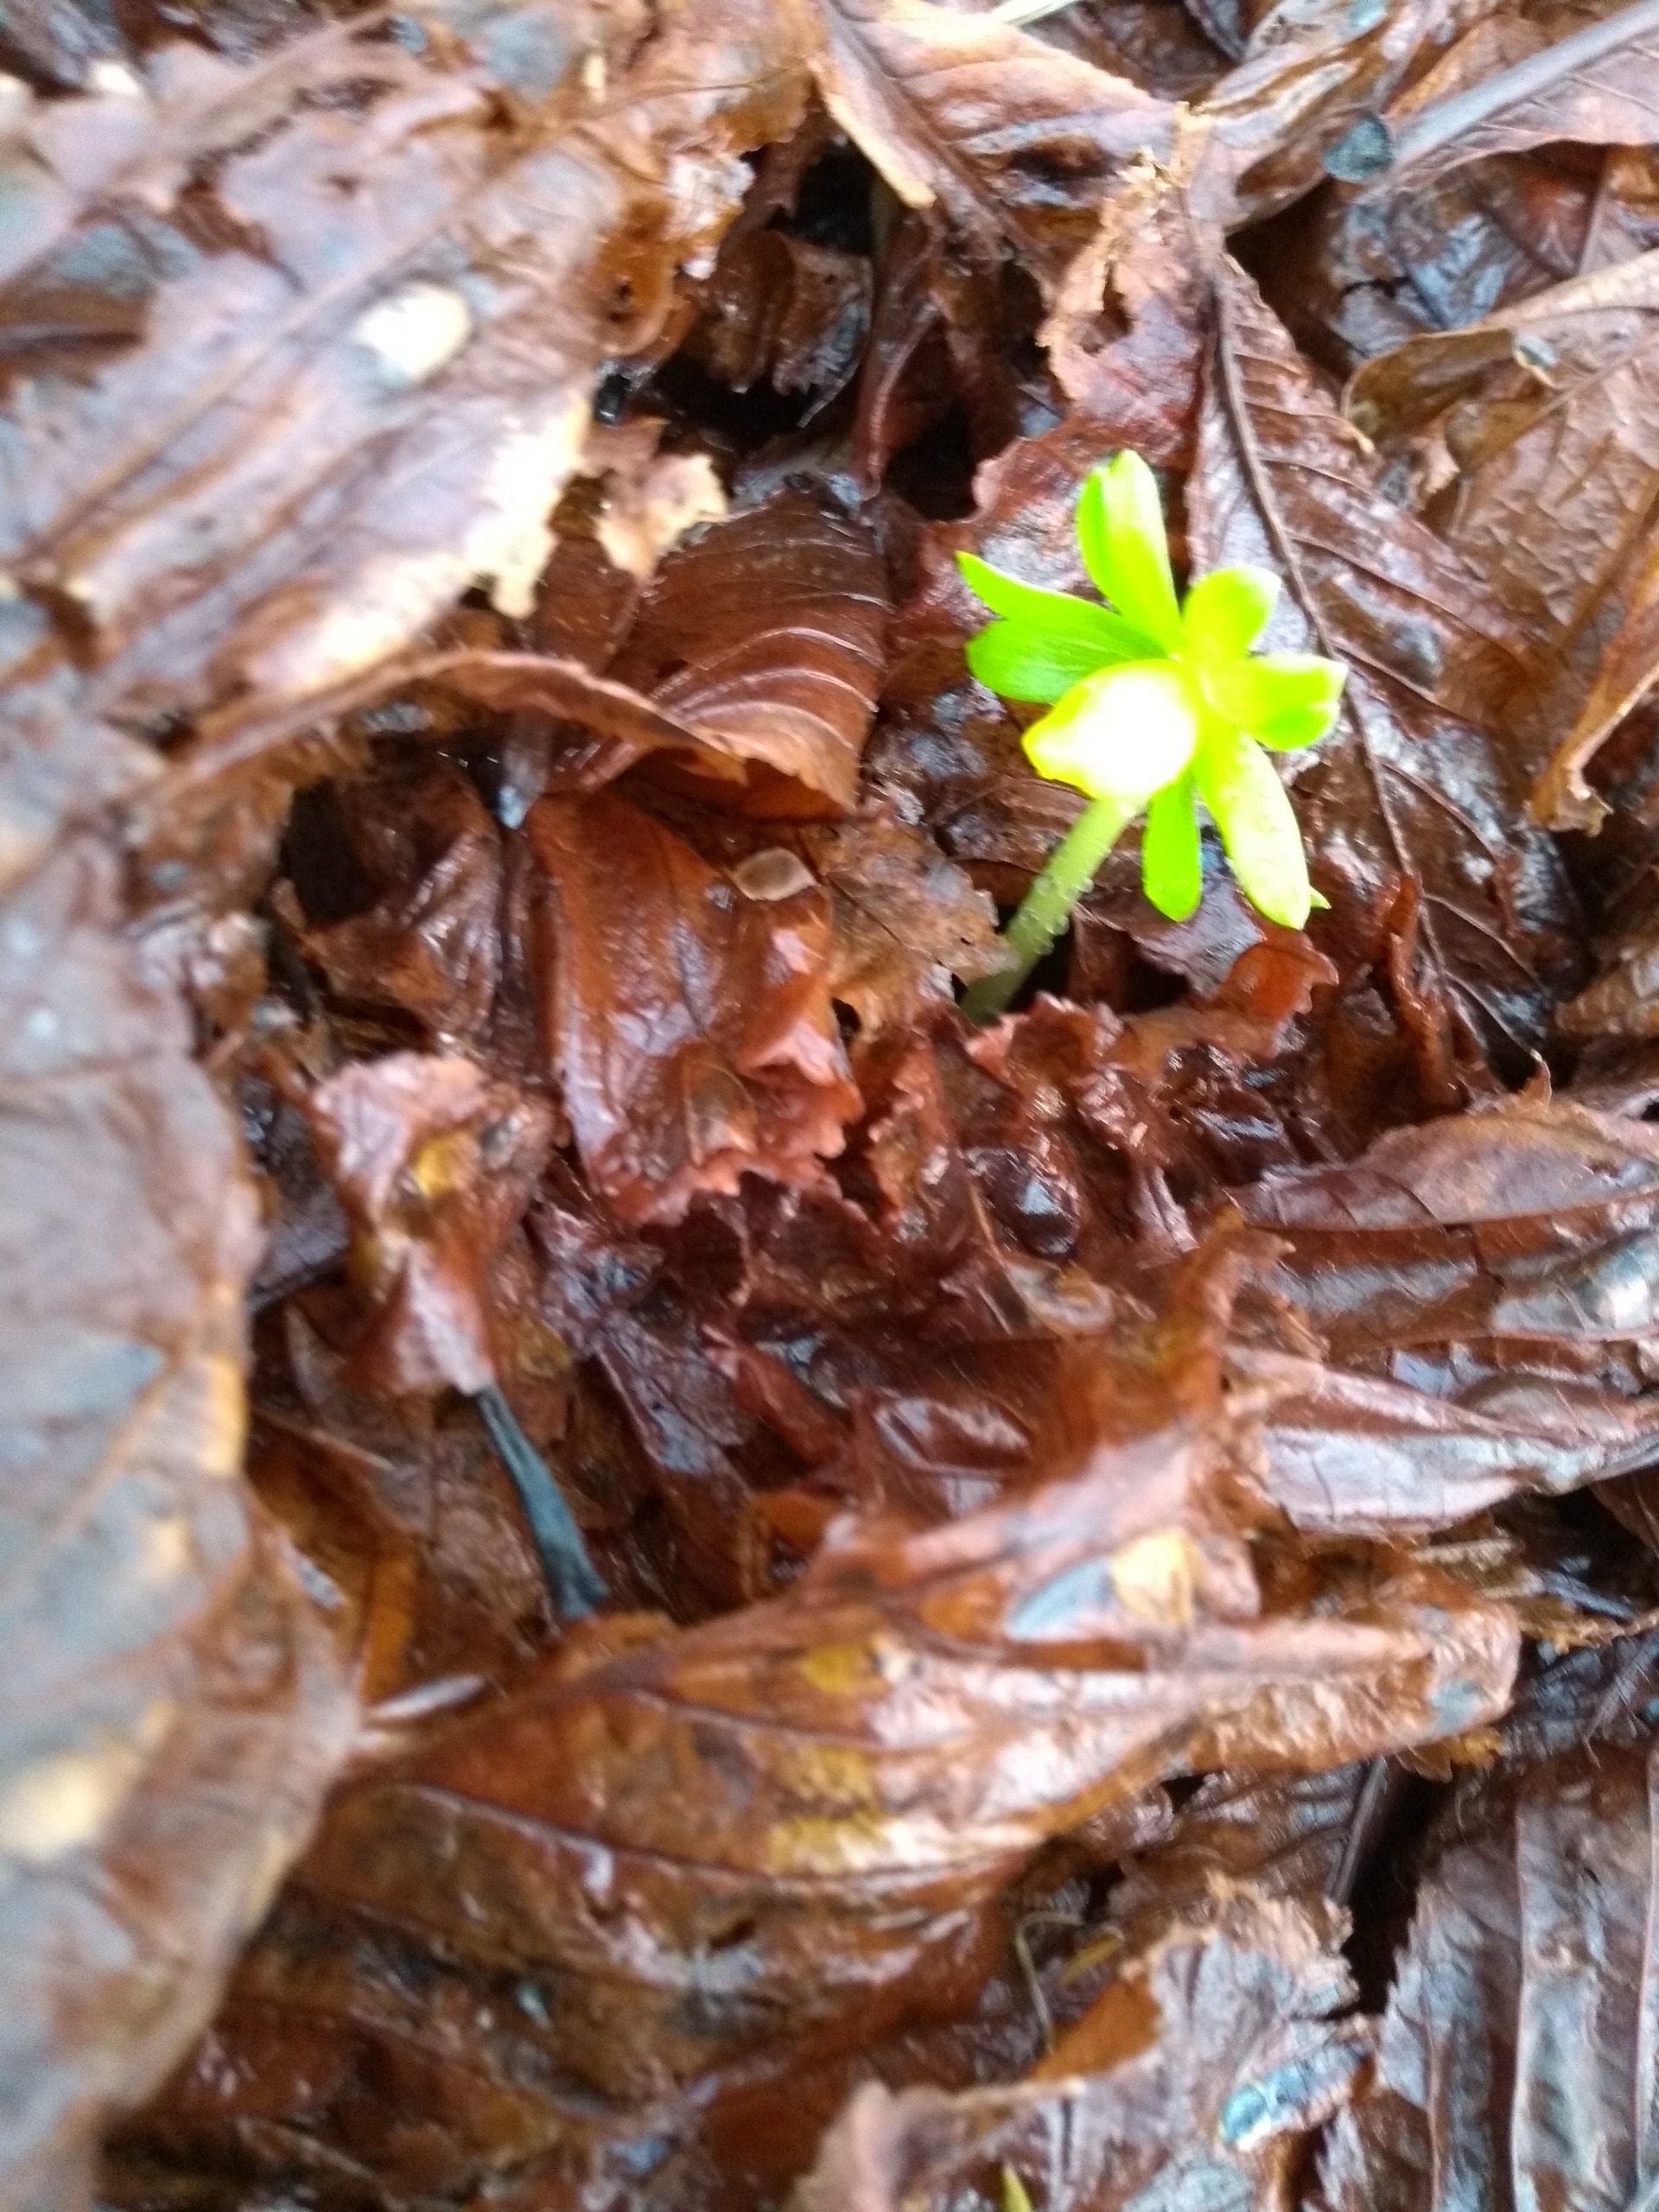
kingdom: Plantae
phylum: Tracheophyta
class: Magnoliopsida
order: Ranunculales
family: Ranunculaceae
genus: Eranthis
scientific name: Eranthis hyemalis
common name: Erantis
